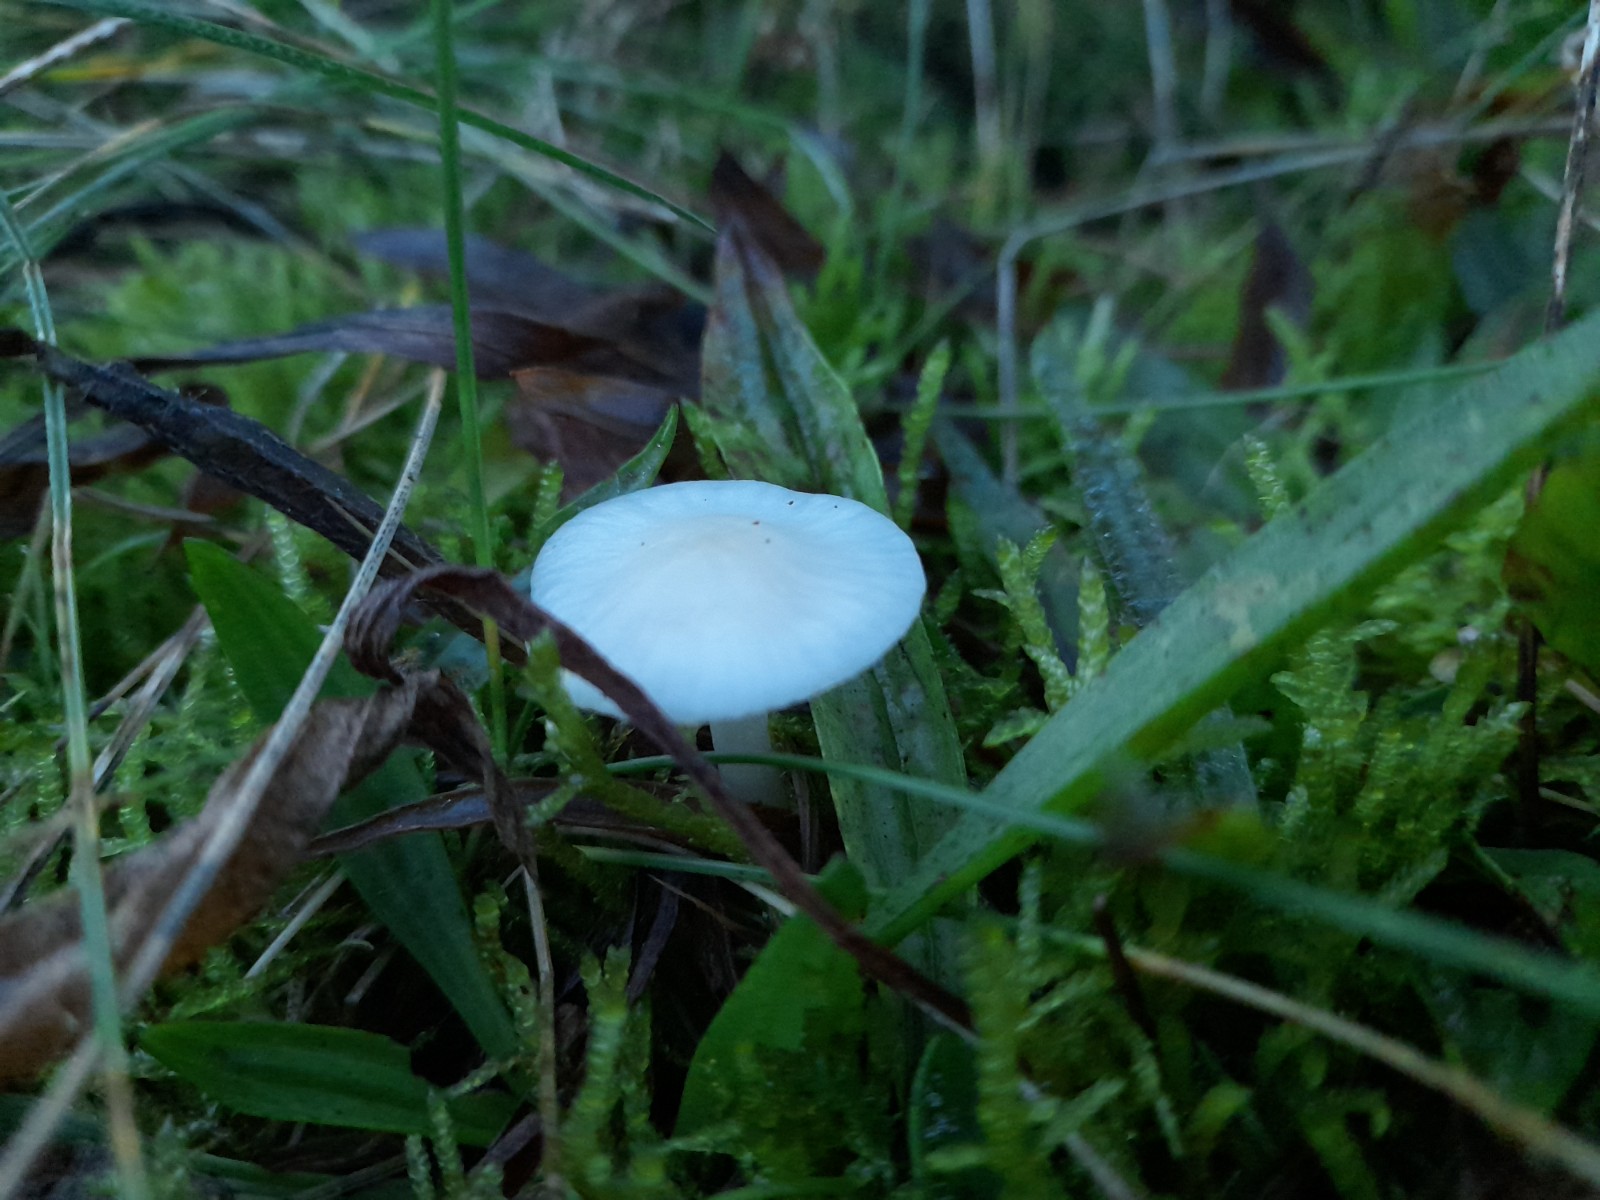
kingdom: Fungi
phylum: Basidiomycota
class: Agaricomycetes
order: Agaricales
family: Hygrophoraceae
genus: Cuphophyllus
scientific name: Cuphophyllus virgineus
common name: snehvid vokshat
